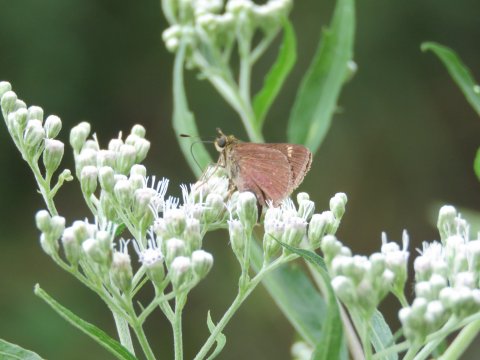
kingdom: Animalia
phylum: Arthropoda
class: Insecta
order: Lepidoptera
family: Hesperiidae
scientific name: Hesperiidae
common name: Skippers
